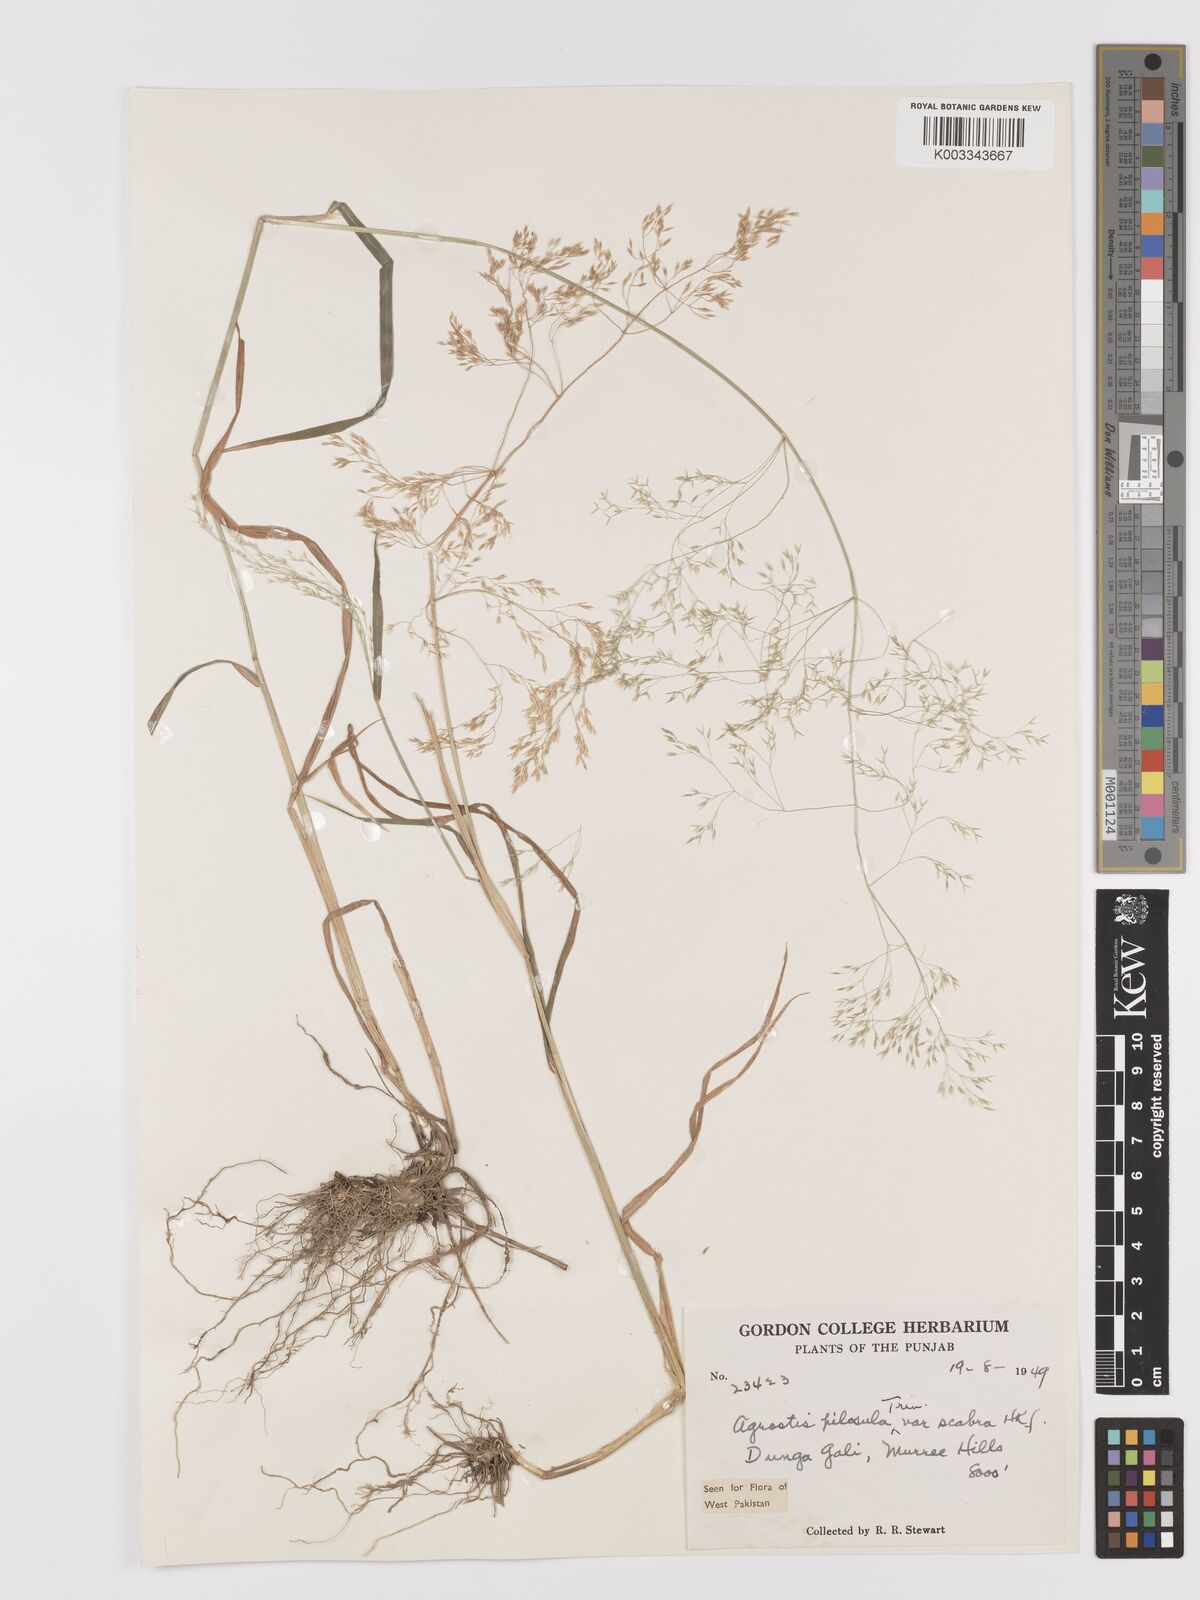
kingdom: Plantae
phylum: Tracheophyta
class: Liliopsida
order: Poales
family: Poaceae
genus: Agrostis
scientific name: Agrostis pilosula
